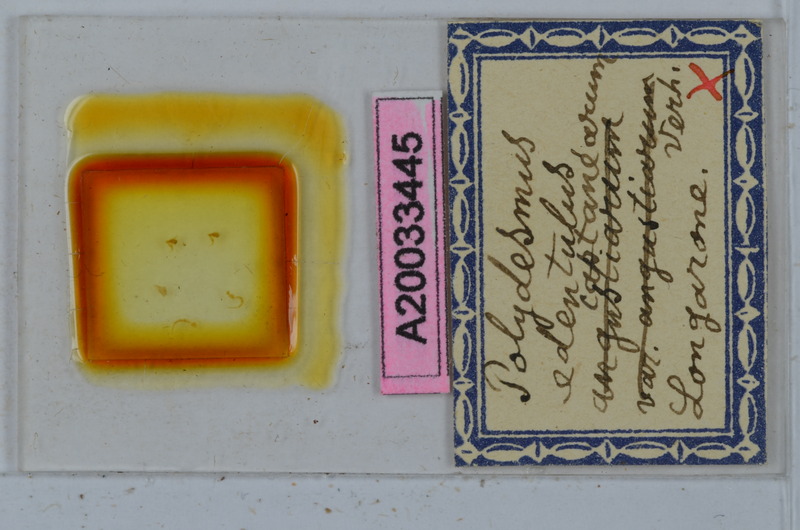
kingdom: Animalia
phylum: Arthropoda
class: Diplopoda
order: Polydesmida
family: Polydesmidae
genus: Polydesmus
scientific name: Polydesmus edentulus
